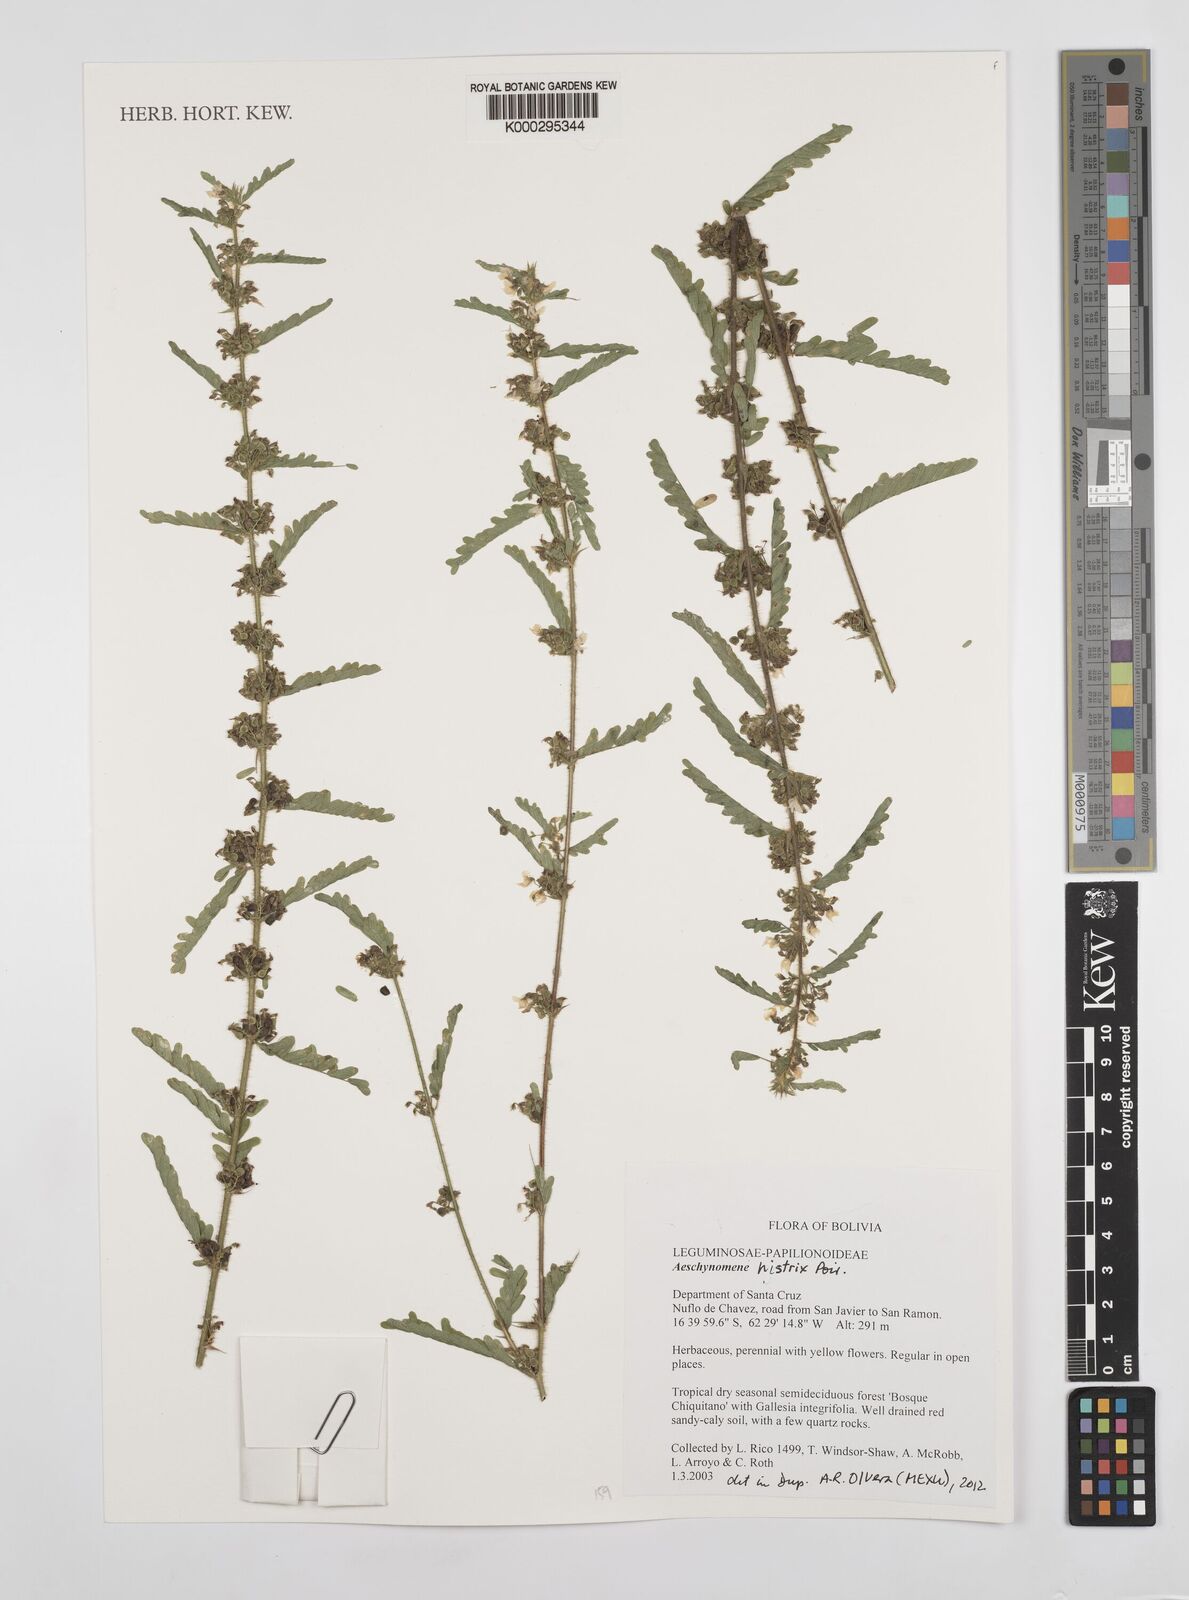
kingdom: Plantae
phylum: Tracheophyta
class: Magnoliopsida
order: Fabales
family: Fabaceae
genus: Ctenodon
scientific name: Ctenodon histrix
